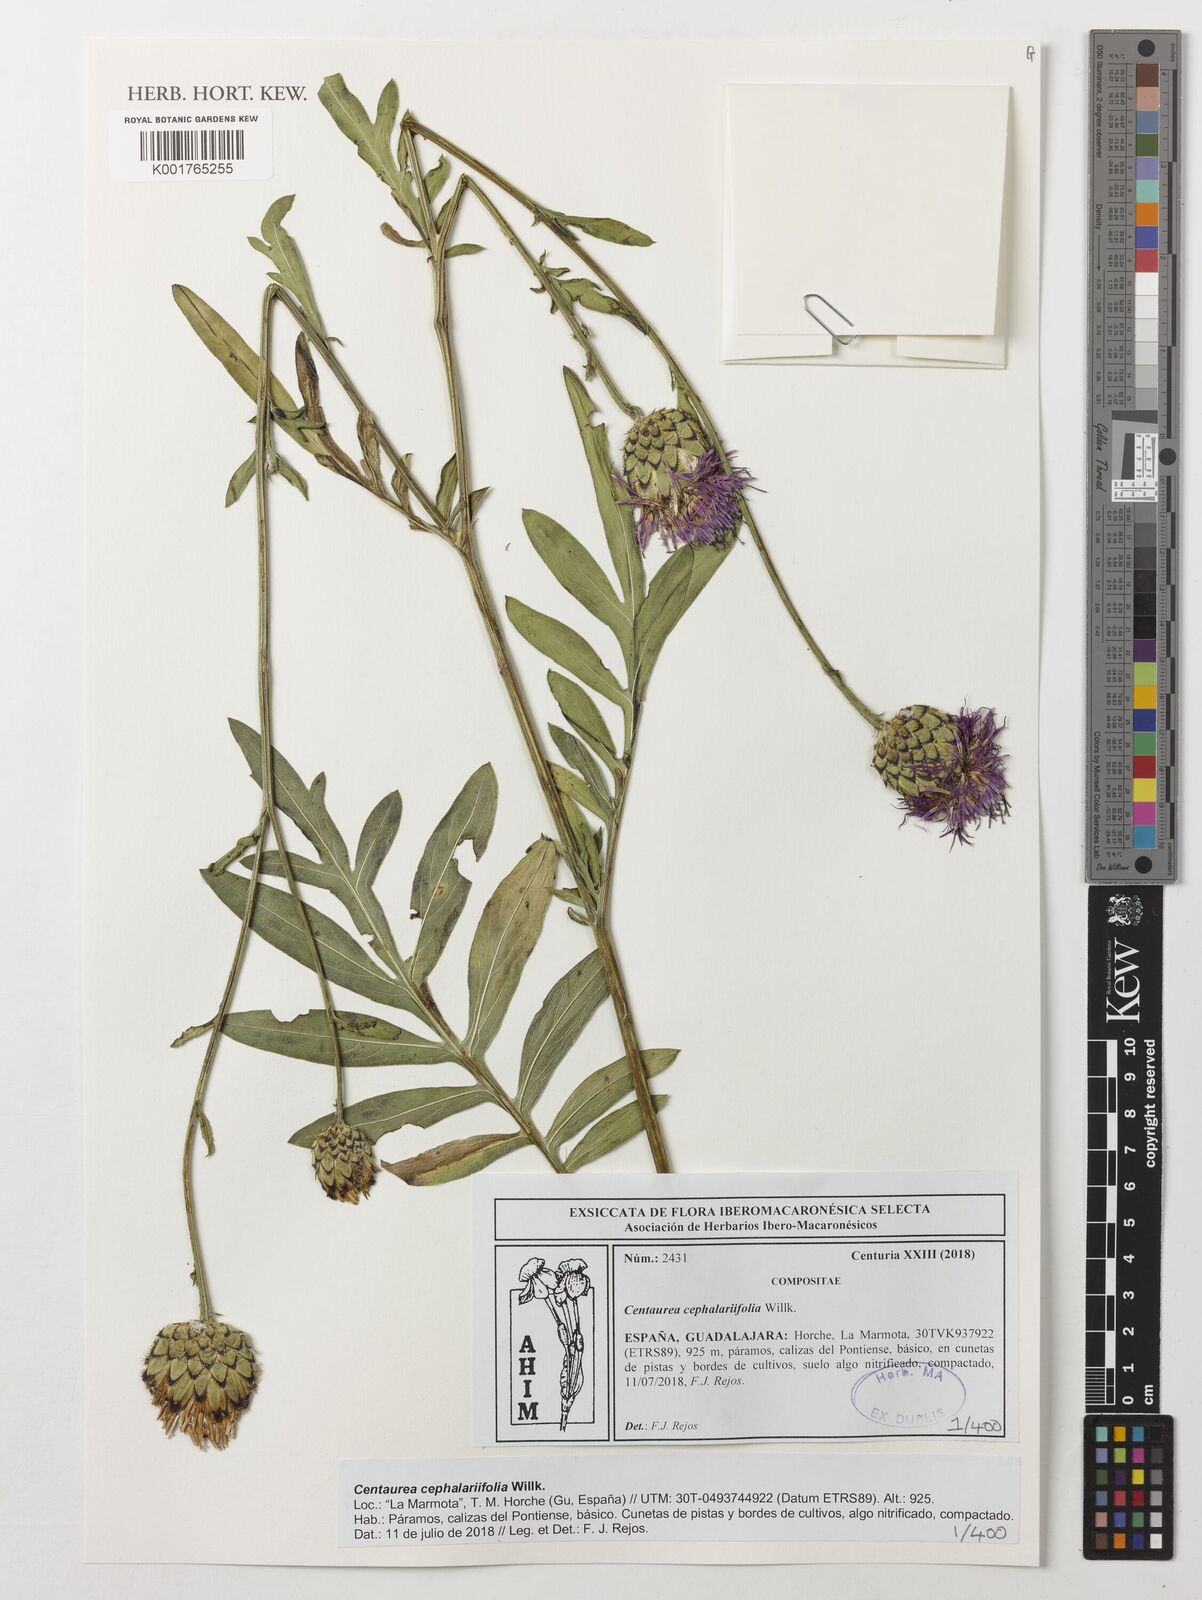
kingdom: Plantae
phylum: Tracheophyta
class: Magnoliopsida
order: Asterales
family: Asteraceae
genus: Centaurea
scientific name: Centaurea cephalariifolia
